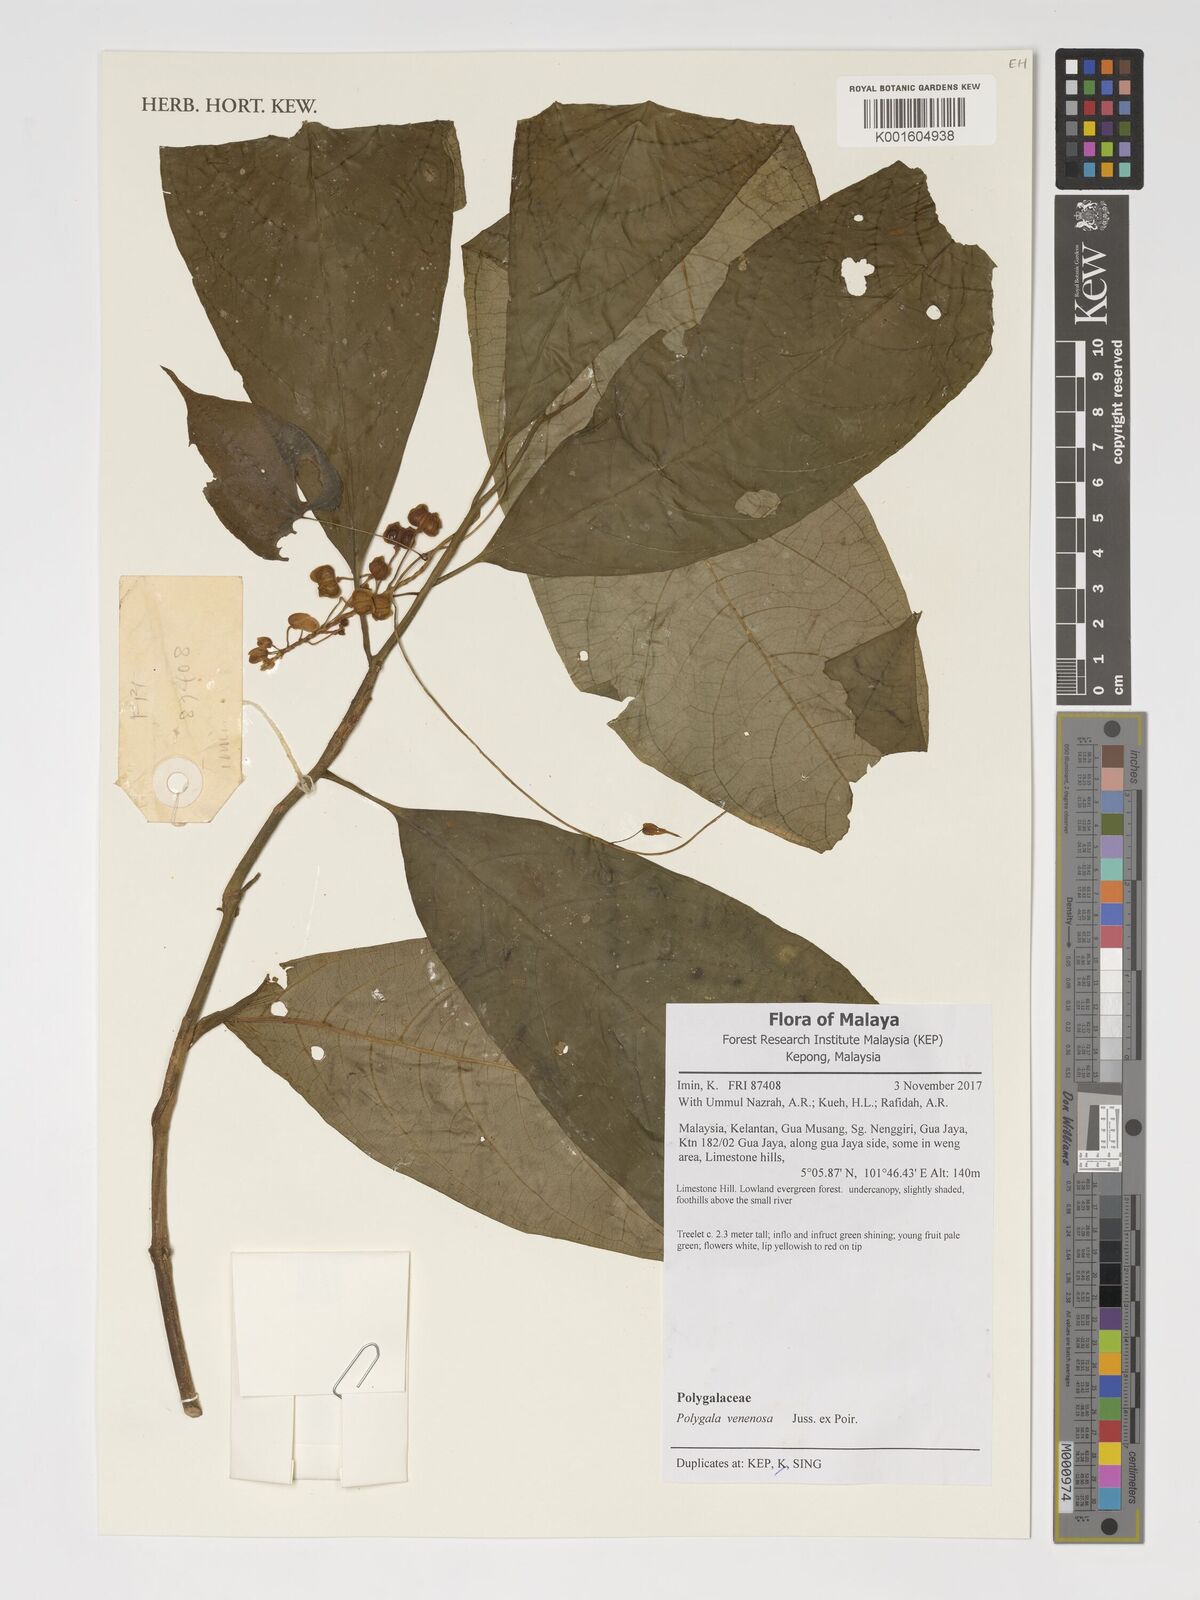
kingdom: Plantae
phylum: Tracheophyta
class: Magnoliopsida
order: Fabales
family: Polygalaceae
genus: Polygala
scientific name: Polygala venenosa
